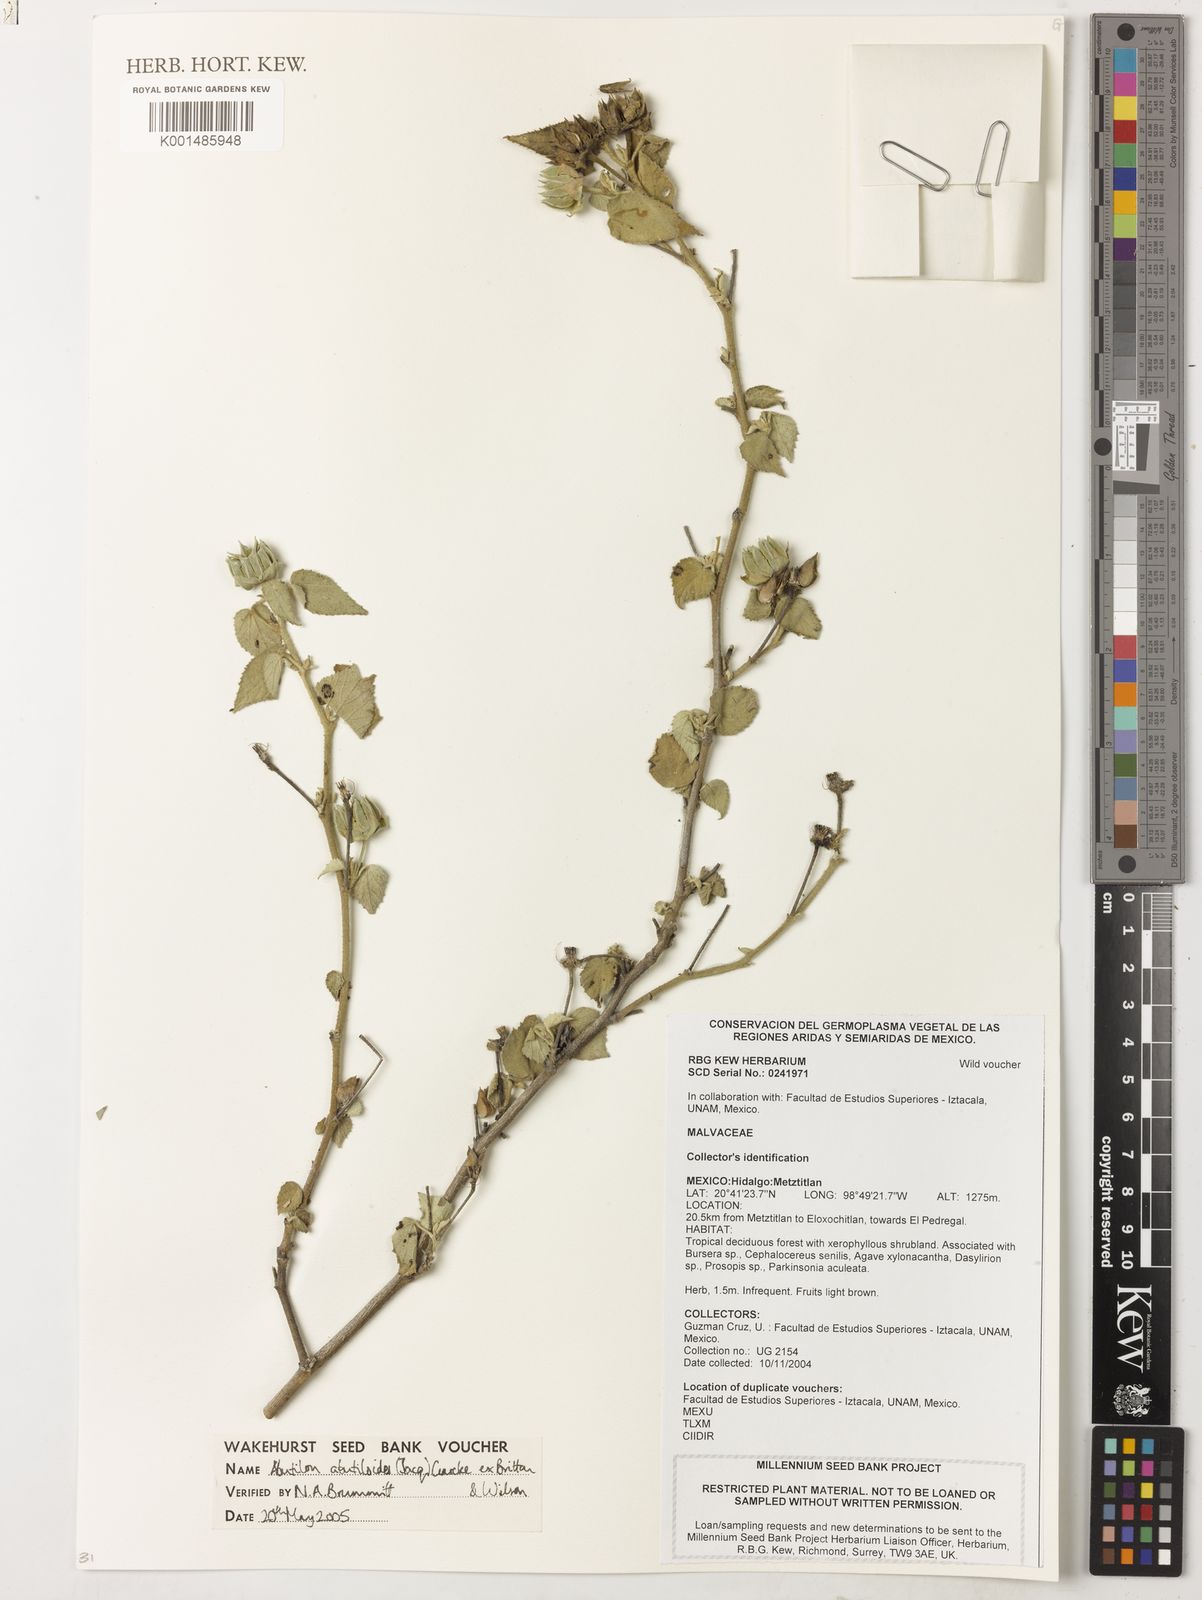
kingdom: Plantae
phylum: Tracheophyta
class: Magnoliopsida
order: Malvales
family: Malvaceae
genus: Abutilon
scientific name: Abutilon abutiloides
